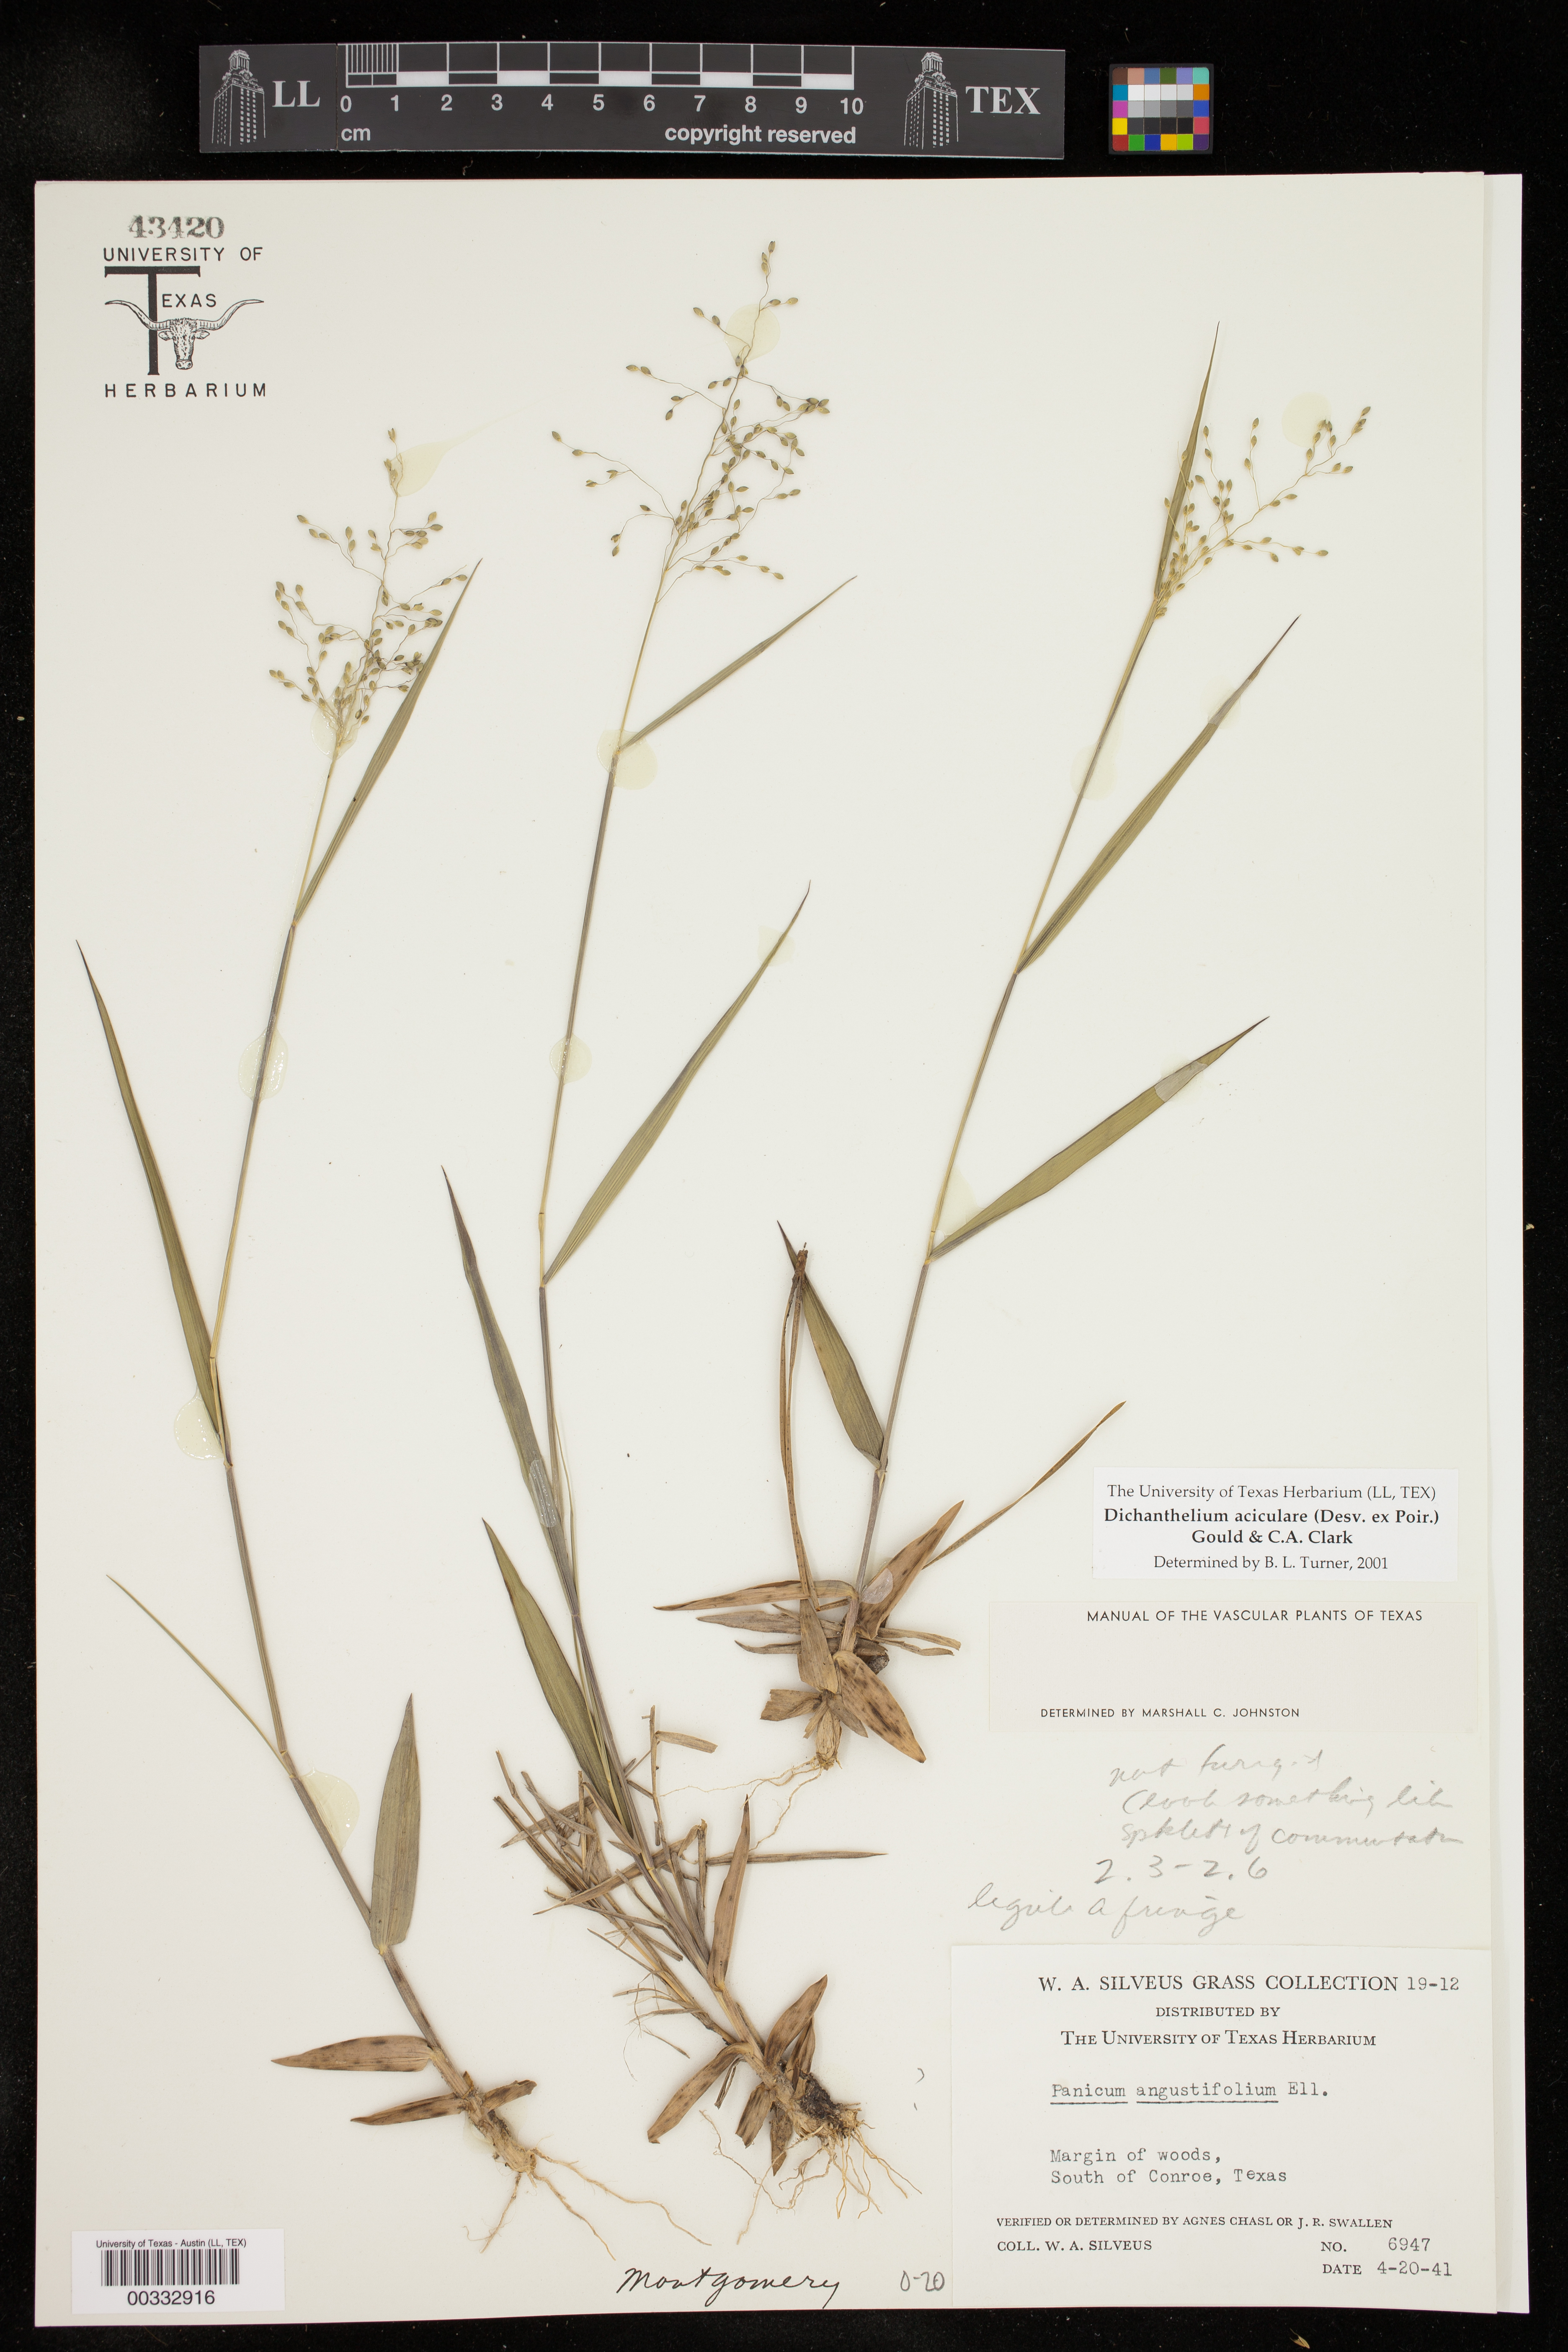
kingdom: Plantae
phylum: Tracheophyta
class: Liliopsida
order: Poales
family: Poaceae
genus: Dichanthelium
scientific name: Dichanthelium aciculare
